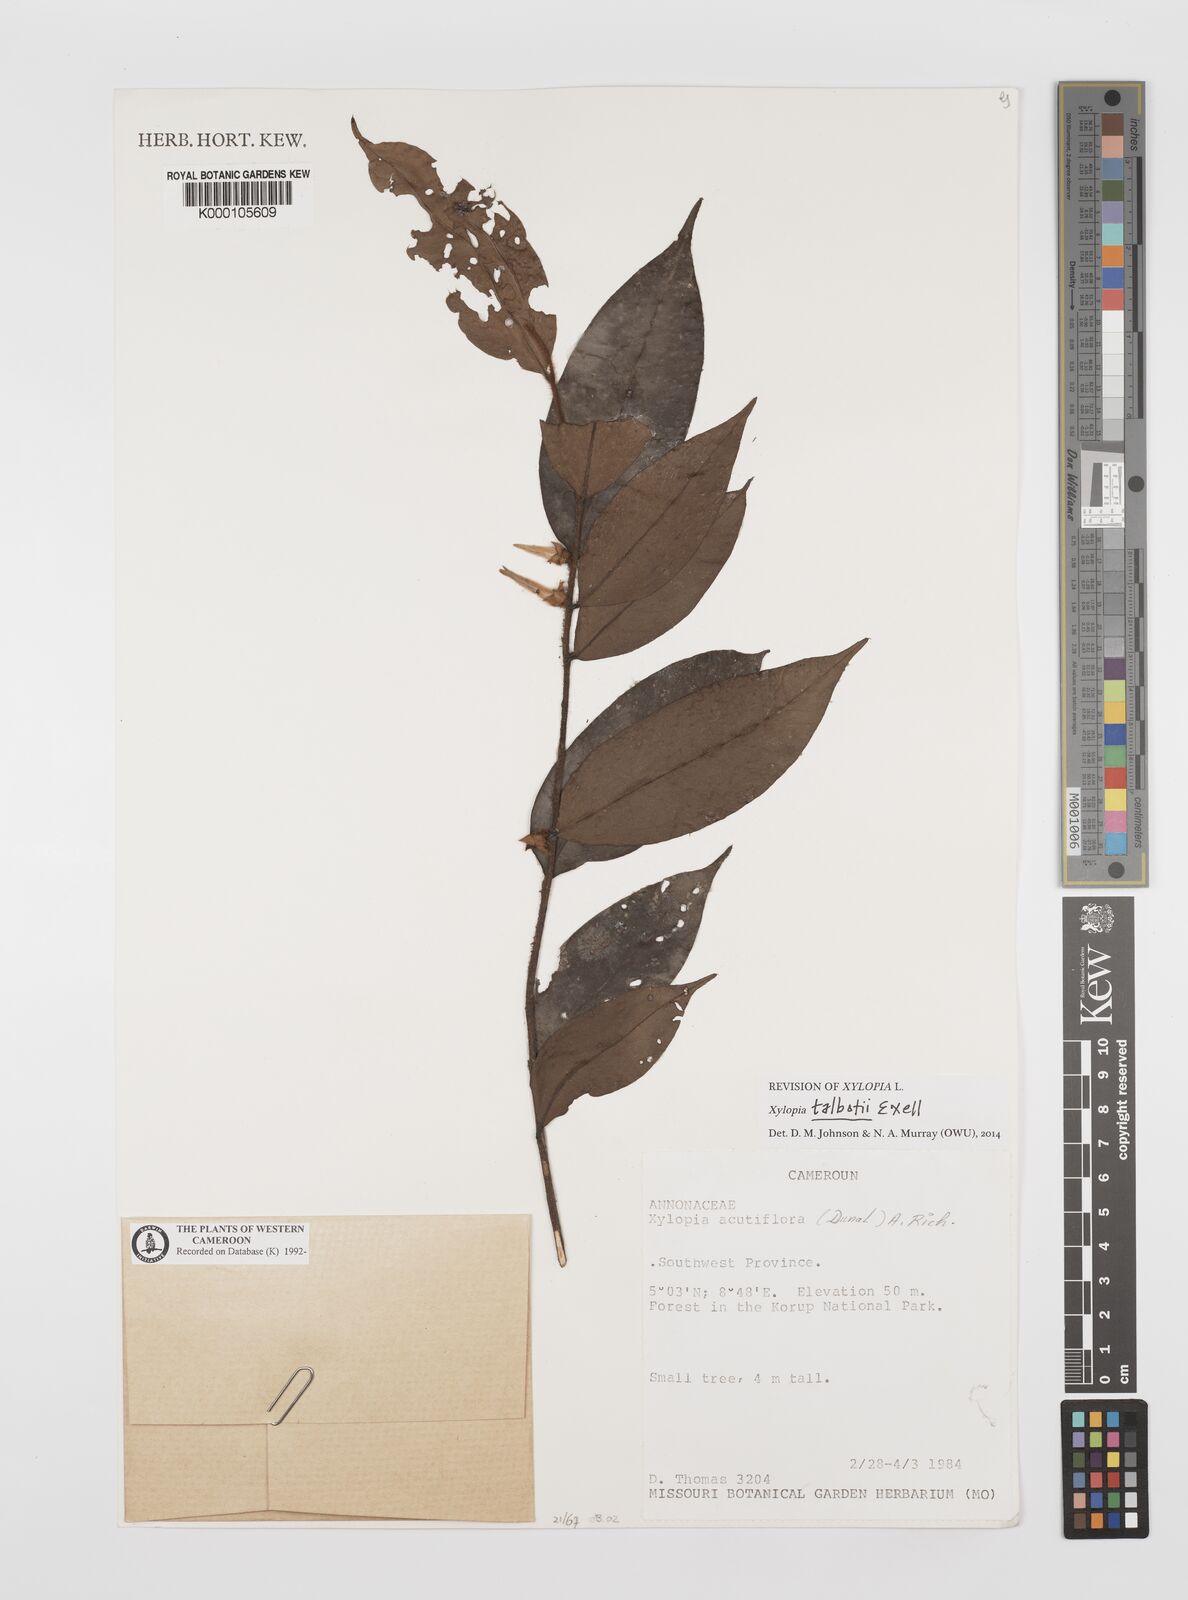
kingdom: Plantae
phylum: Tracheophyta
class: Magnoliopsida
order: Magnoliales
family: Annonaceae
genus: Xylopia
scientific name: Xylopia acutiflora
